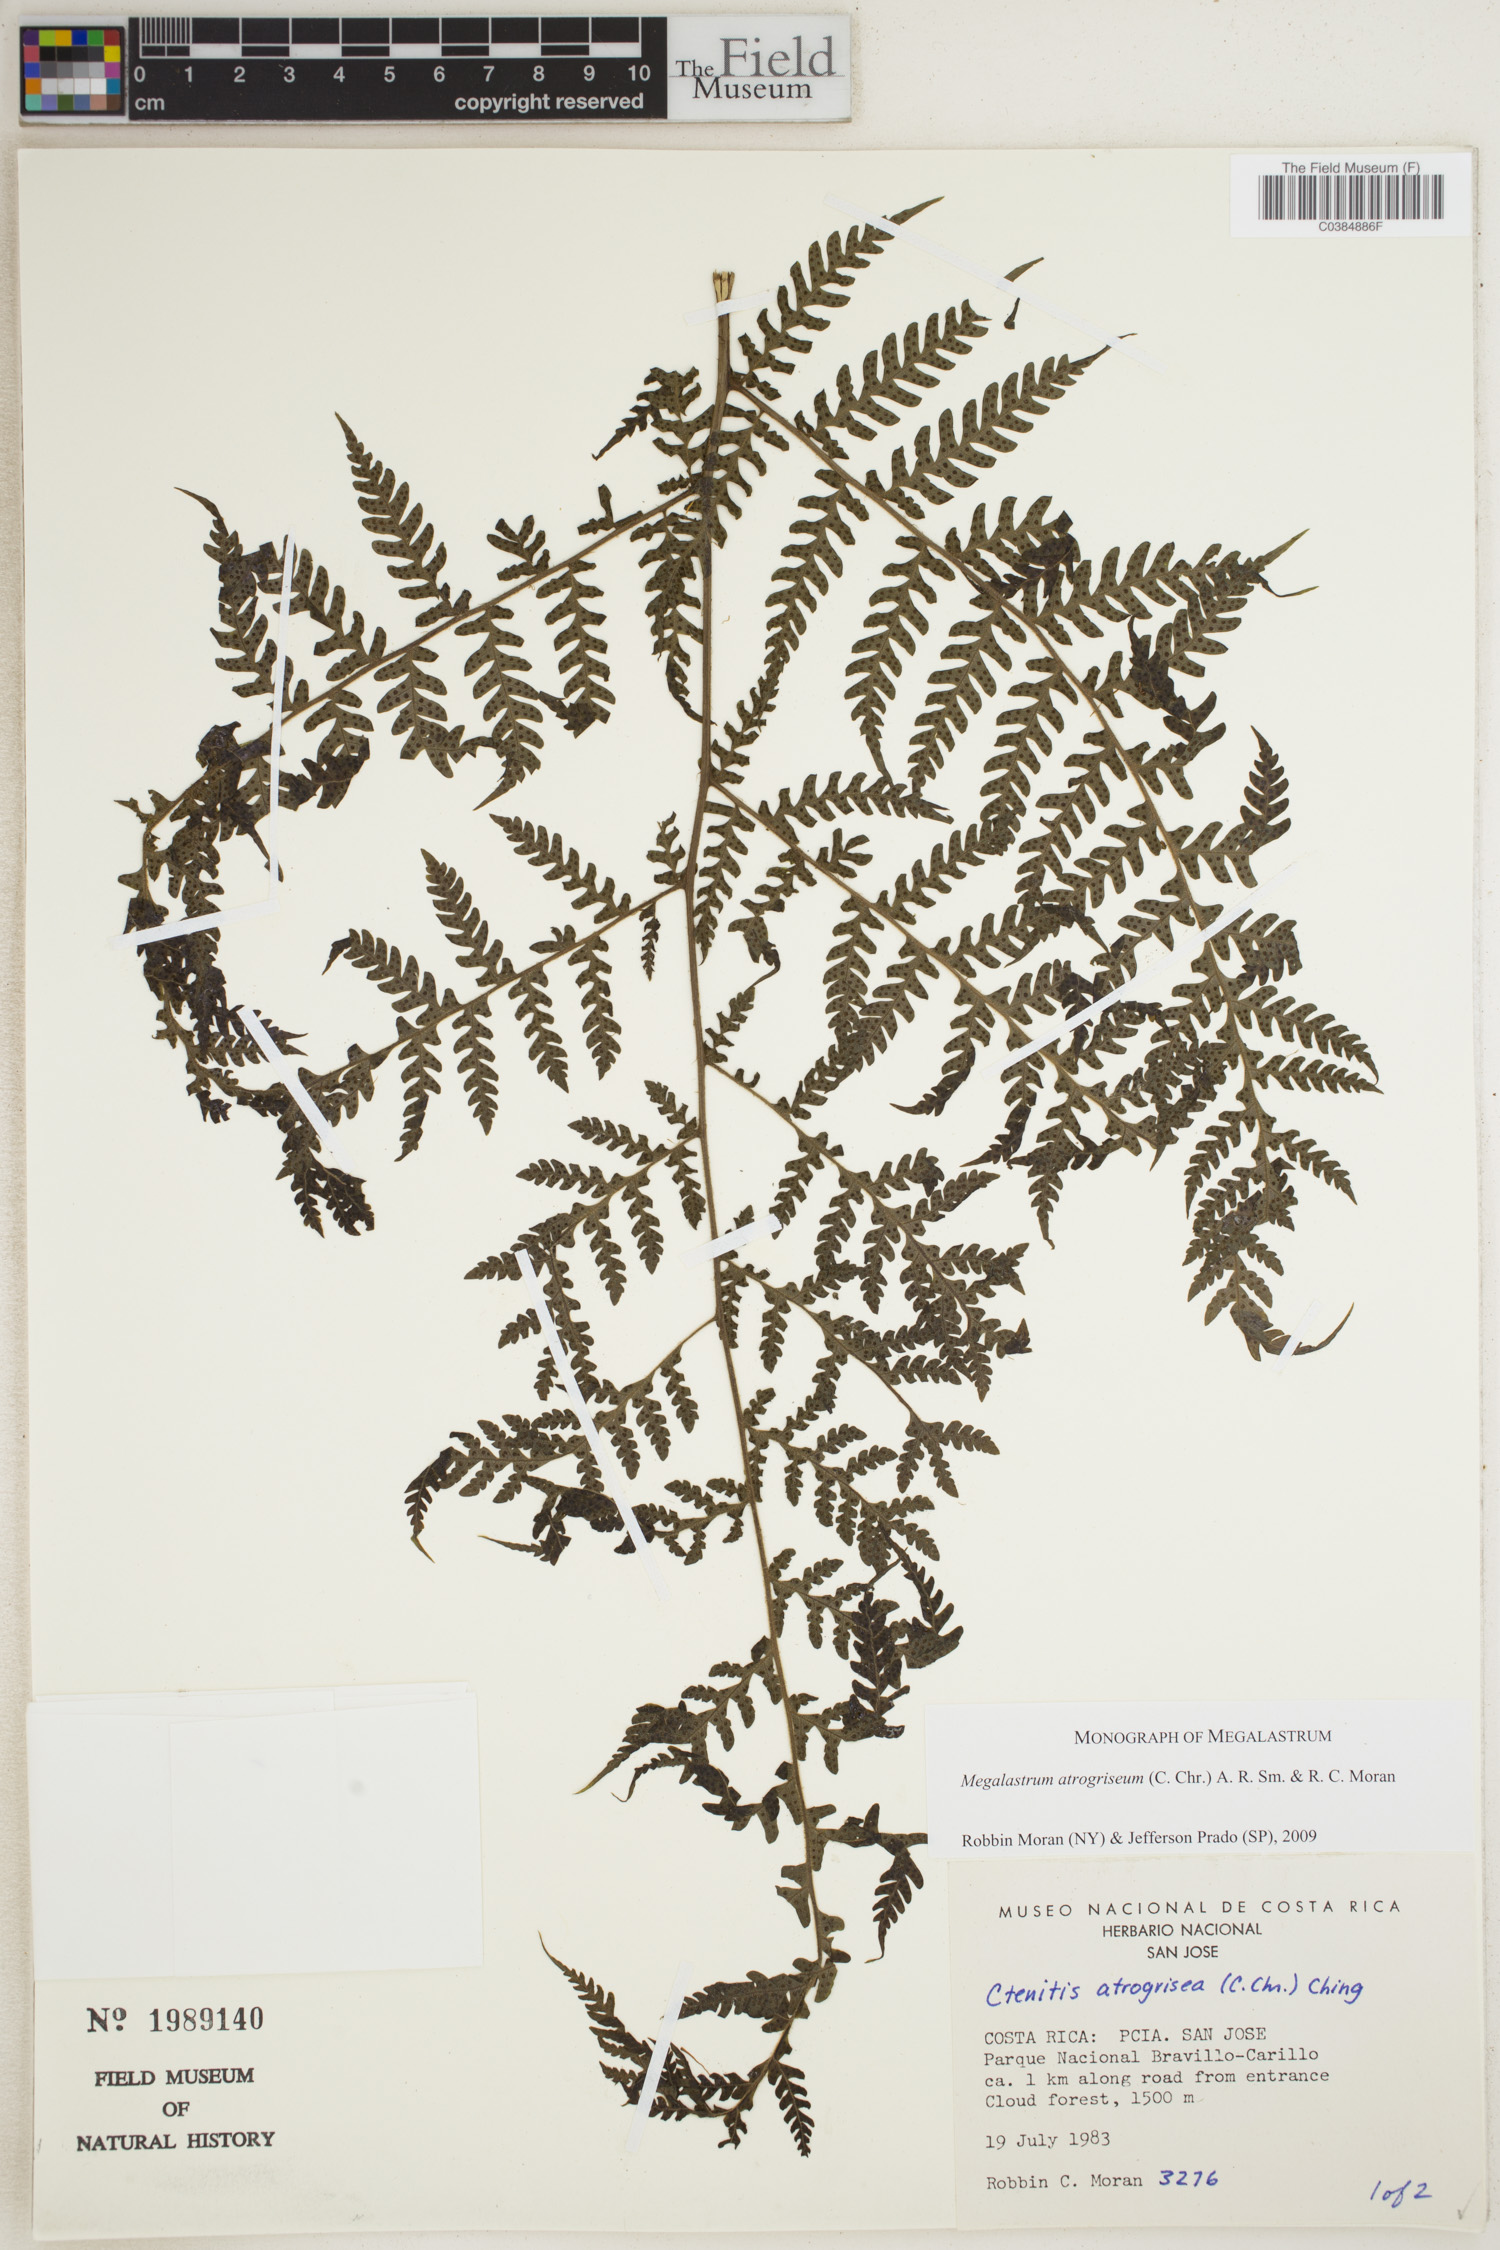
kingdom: Plantae
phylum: Tracheophyta
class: Polypodiopsida
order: Polypodiales
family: Dryopteridaceae
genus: Megalastrum
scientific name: Megalastrum atrogriseum
